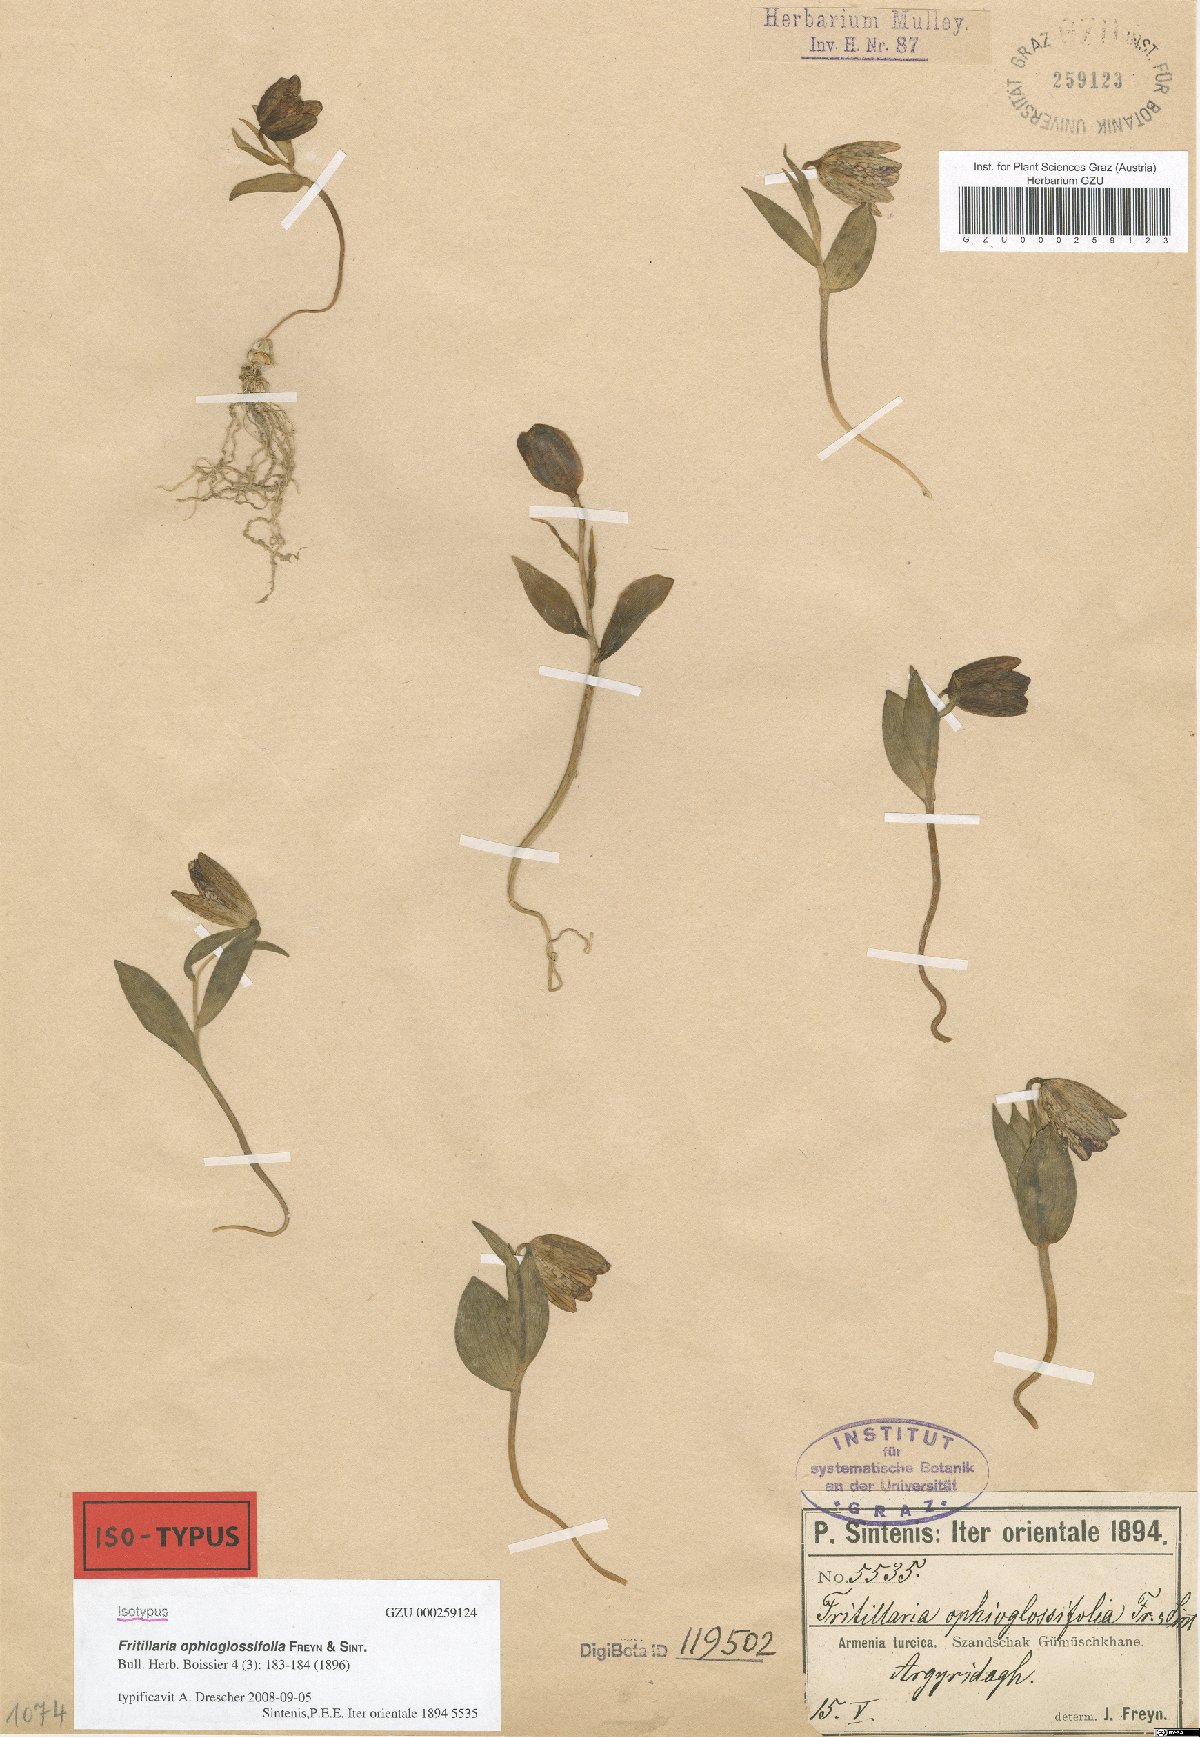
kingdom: Plantae
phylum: Tracheophyta
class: Liliopsida
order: Liliales
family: Liliaceae
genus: Fritillaria
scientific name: Fritillaria crassifolia
